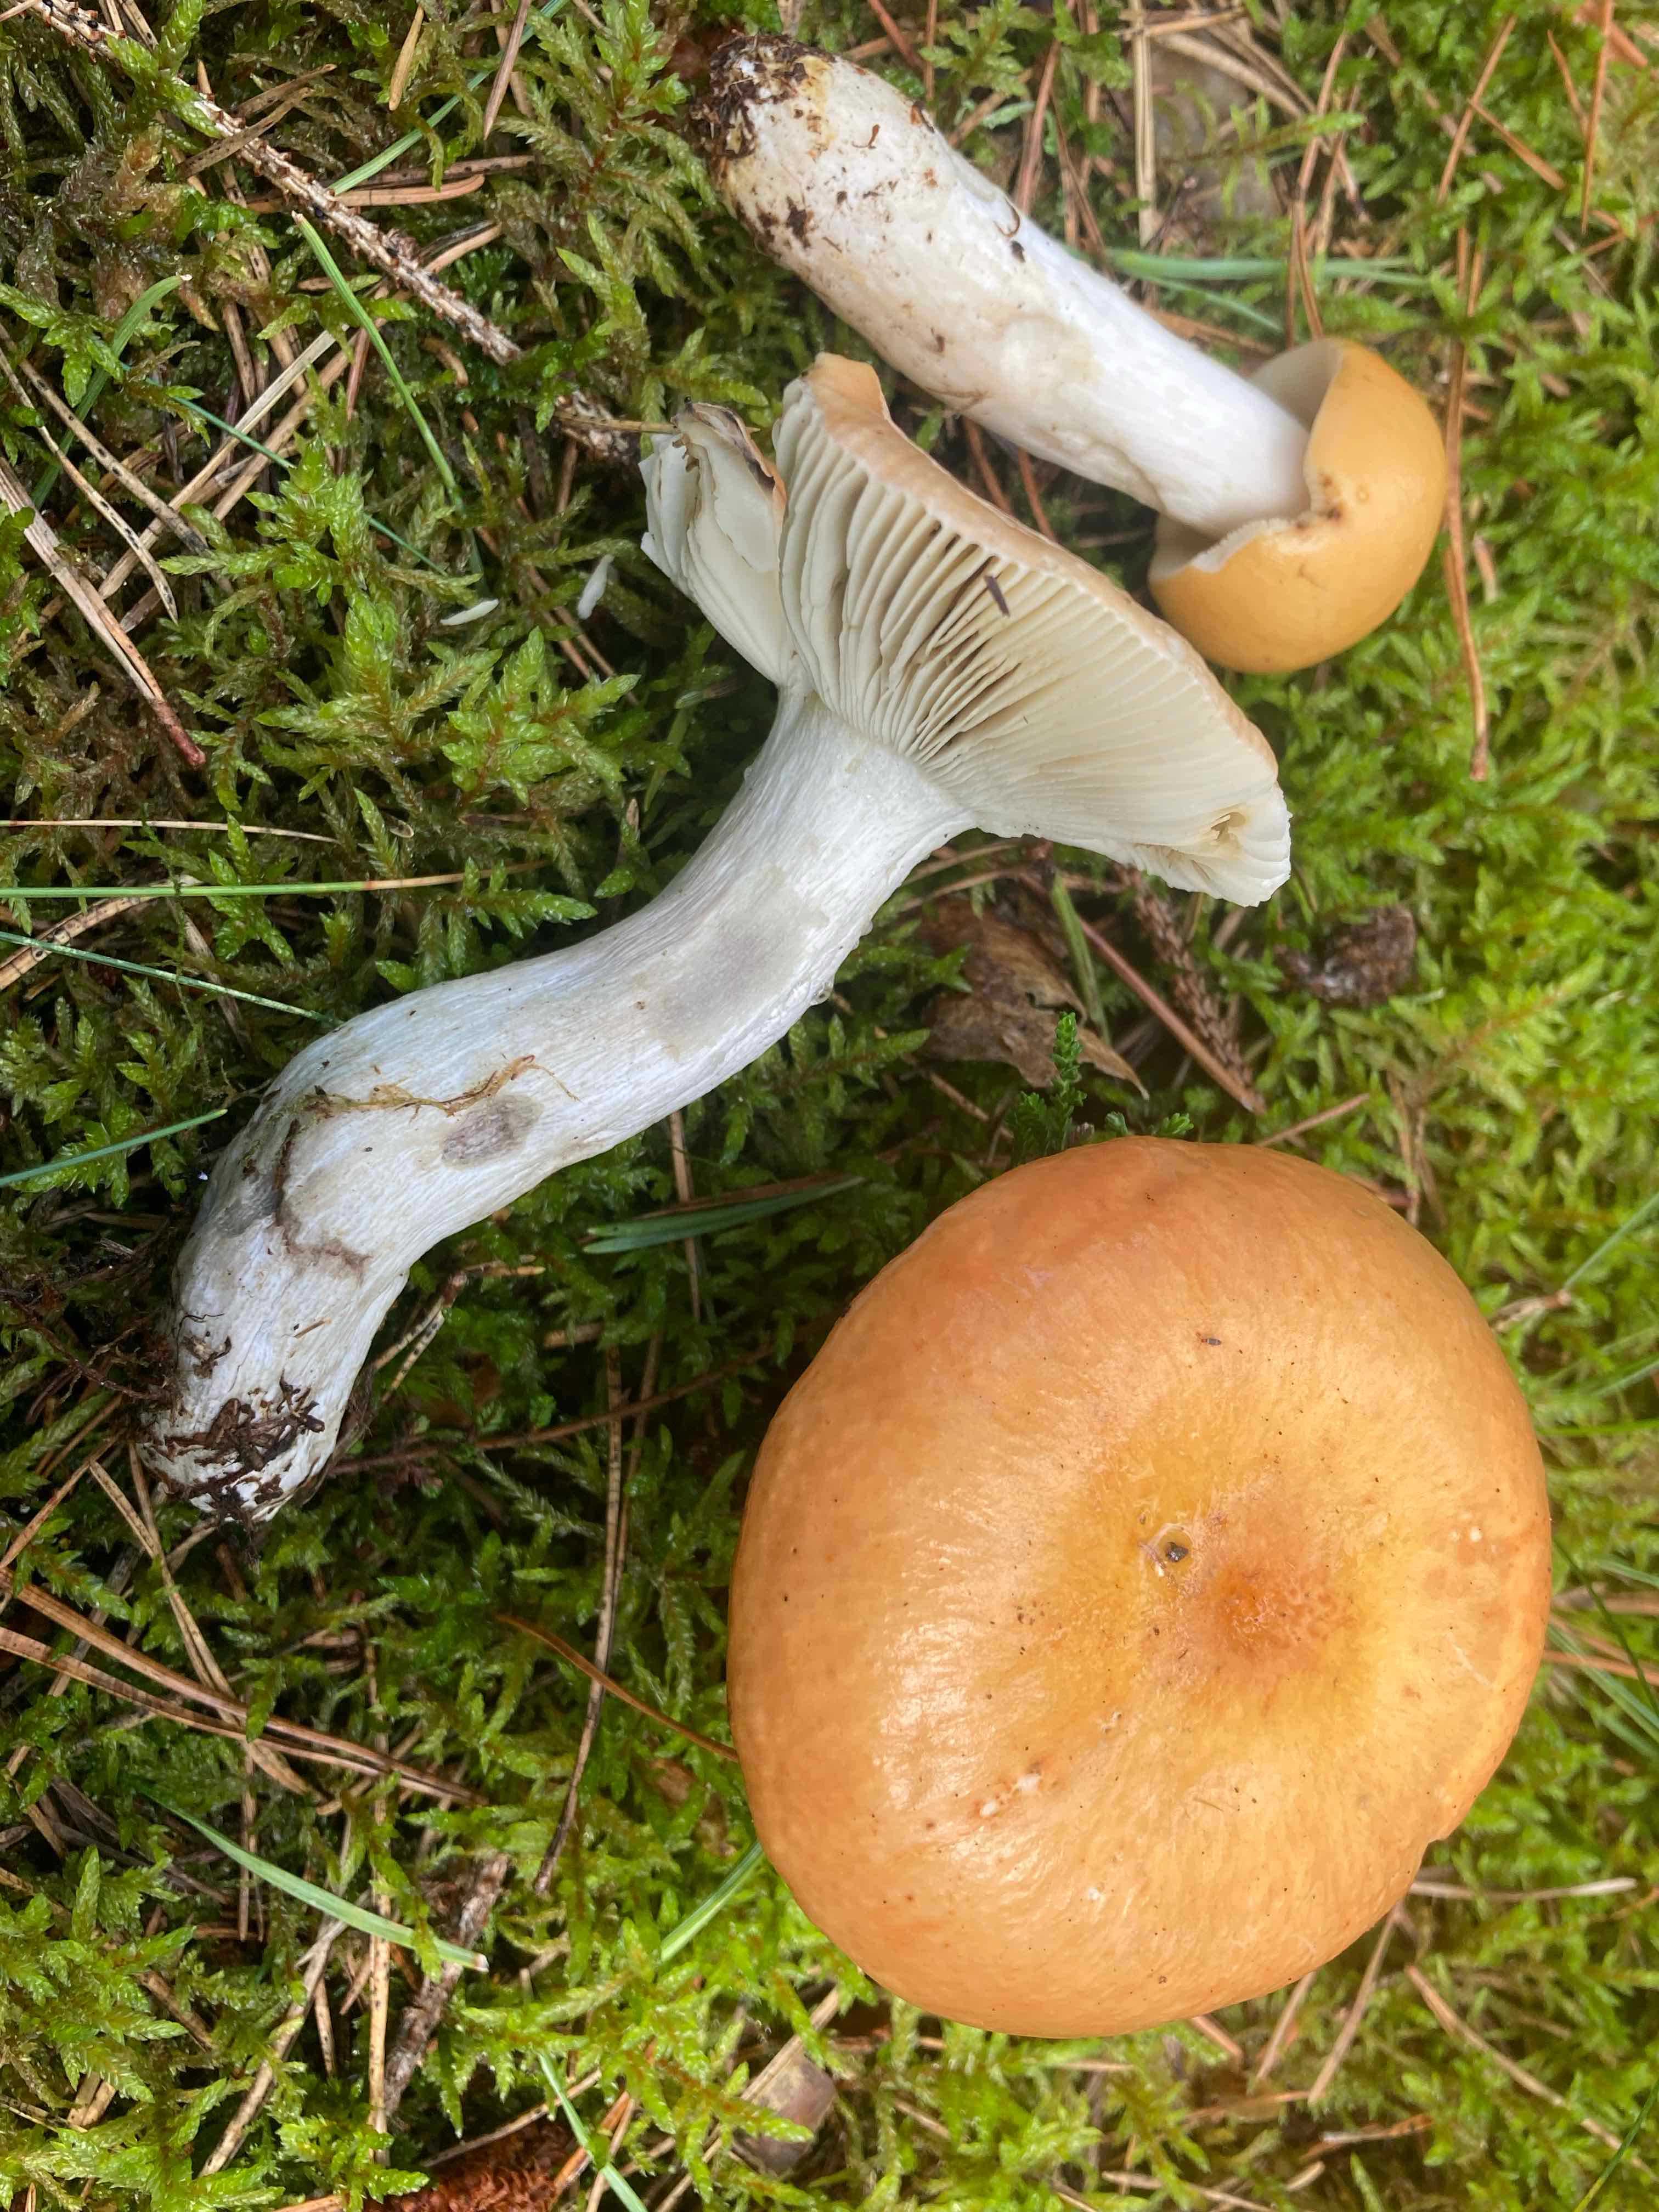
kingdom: Fungi
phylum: Basidiomycota
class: Agaricomycetes
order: Russulales
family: Russulaceae
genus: Russula
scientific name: Russula decolorans
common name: afblegende skørhat
